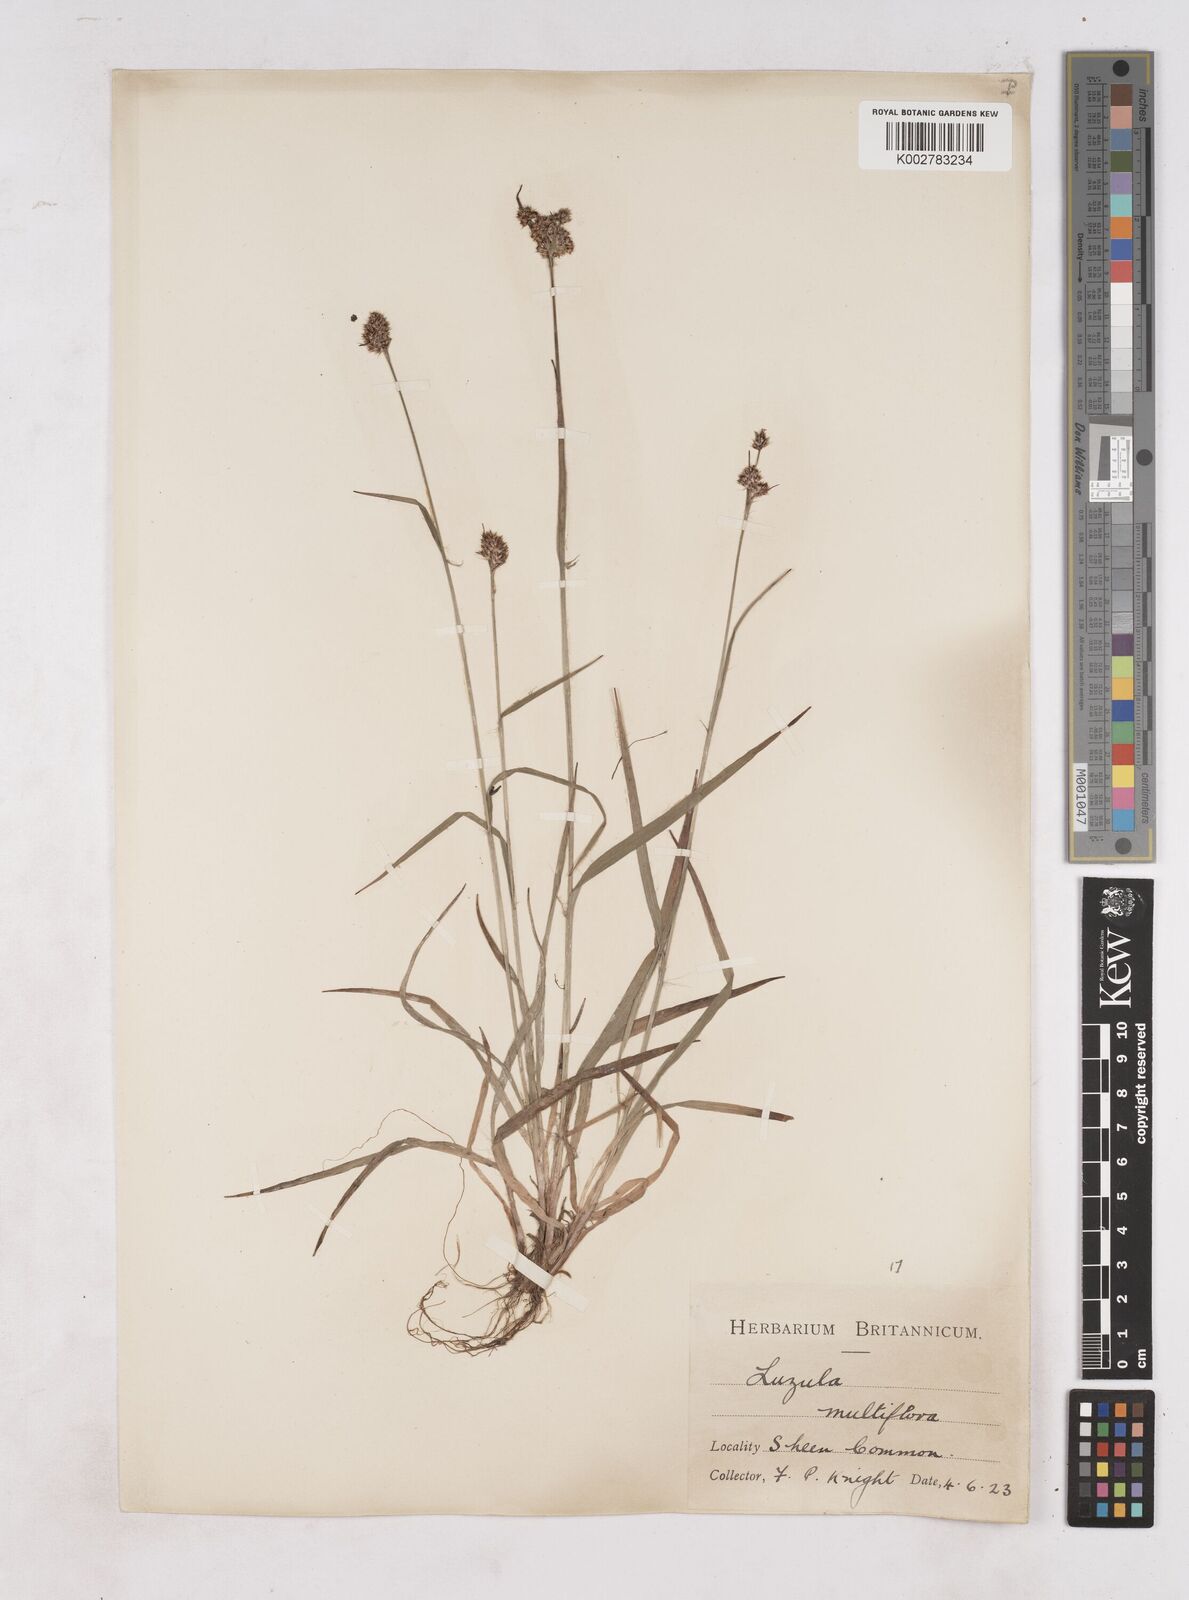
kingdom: Plantae
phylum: Tracheophyta
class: Liliopsida
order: Poales
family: Juncaceae
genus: Luzula
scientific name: Luzula multiflora
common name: Heath wood-rush
